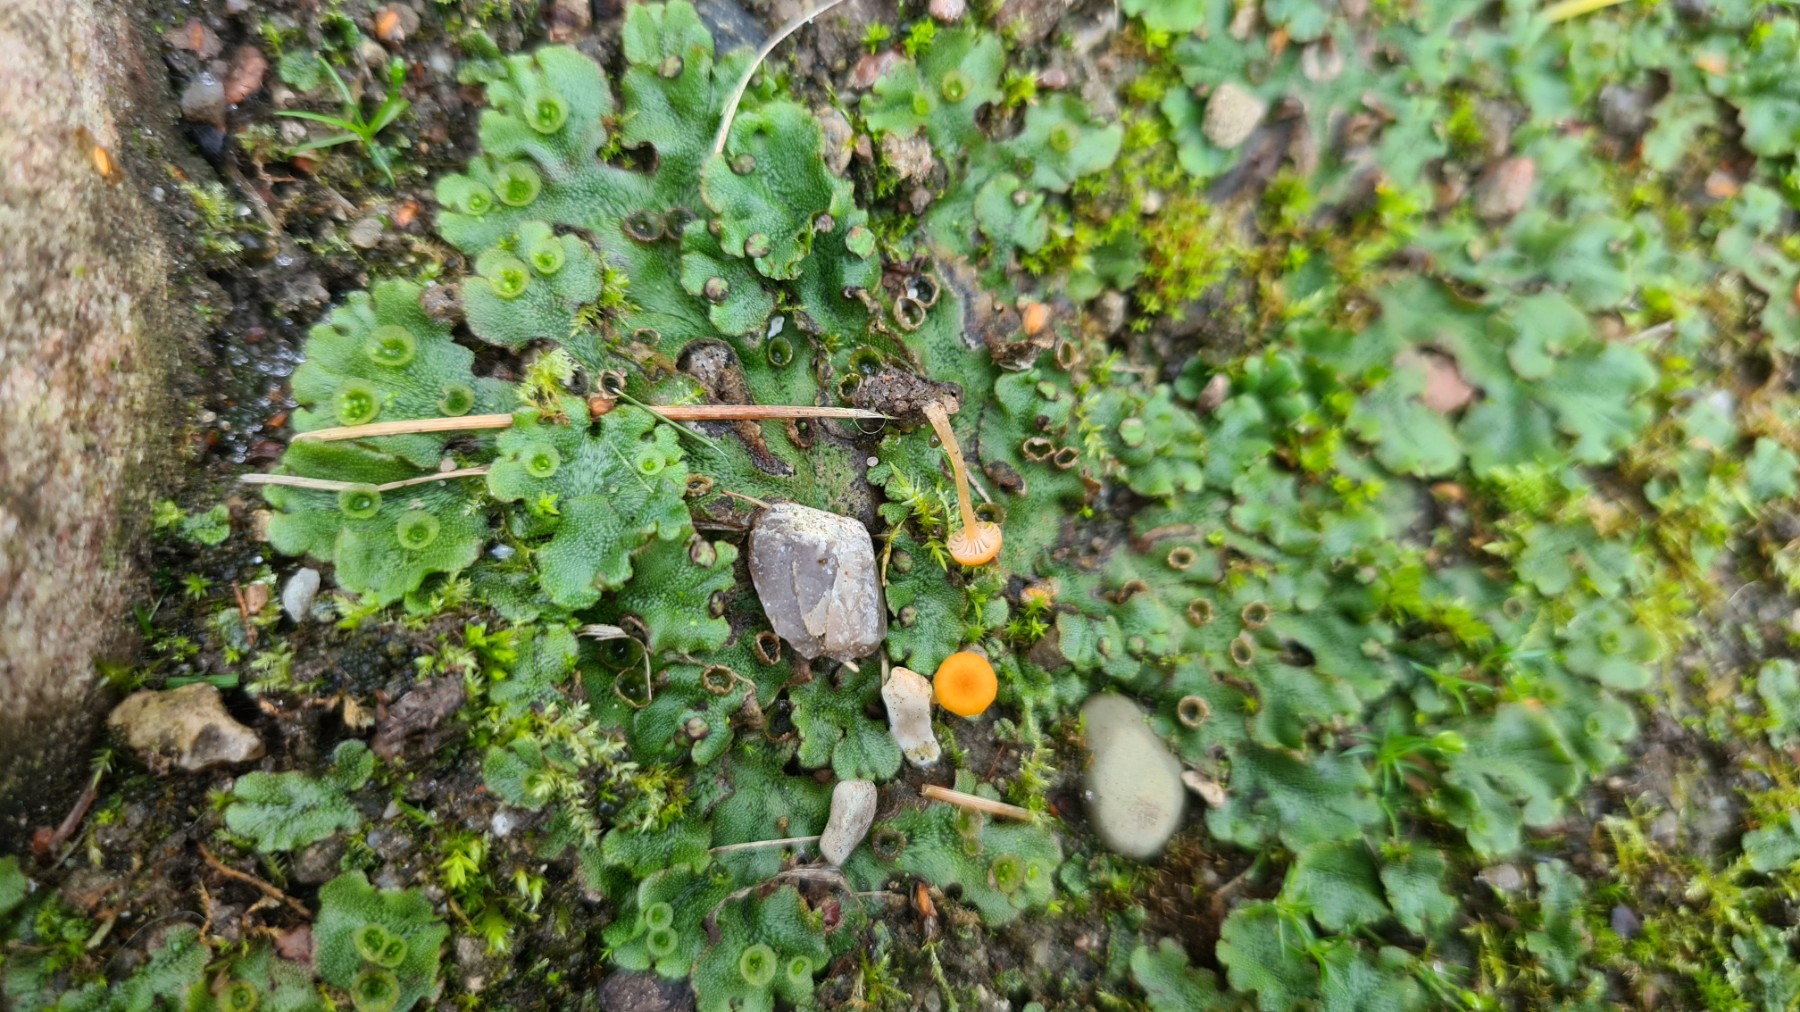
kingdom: Fungi
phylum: Basidiomycota
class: Agaricomycetes
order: Hymenochaetales
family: Rickenellaceae
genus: Loreleia
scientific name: Loreleia marchantiae
